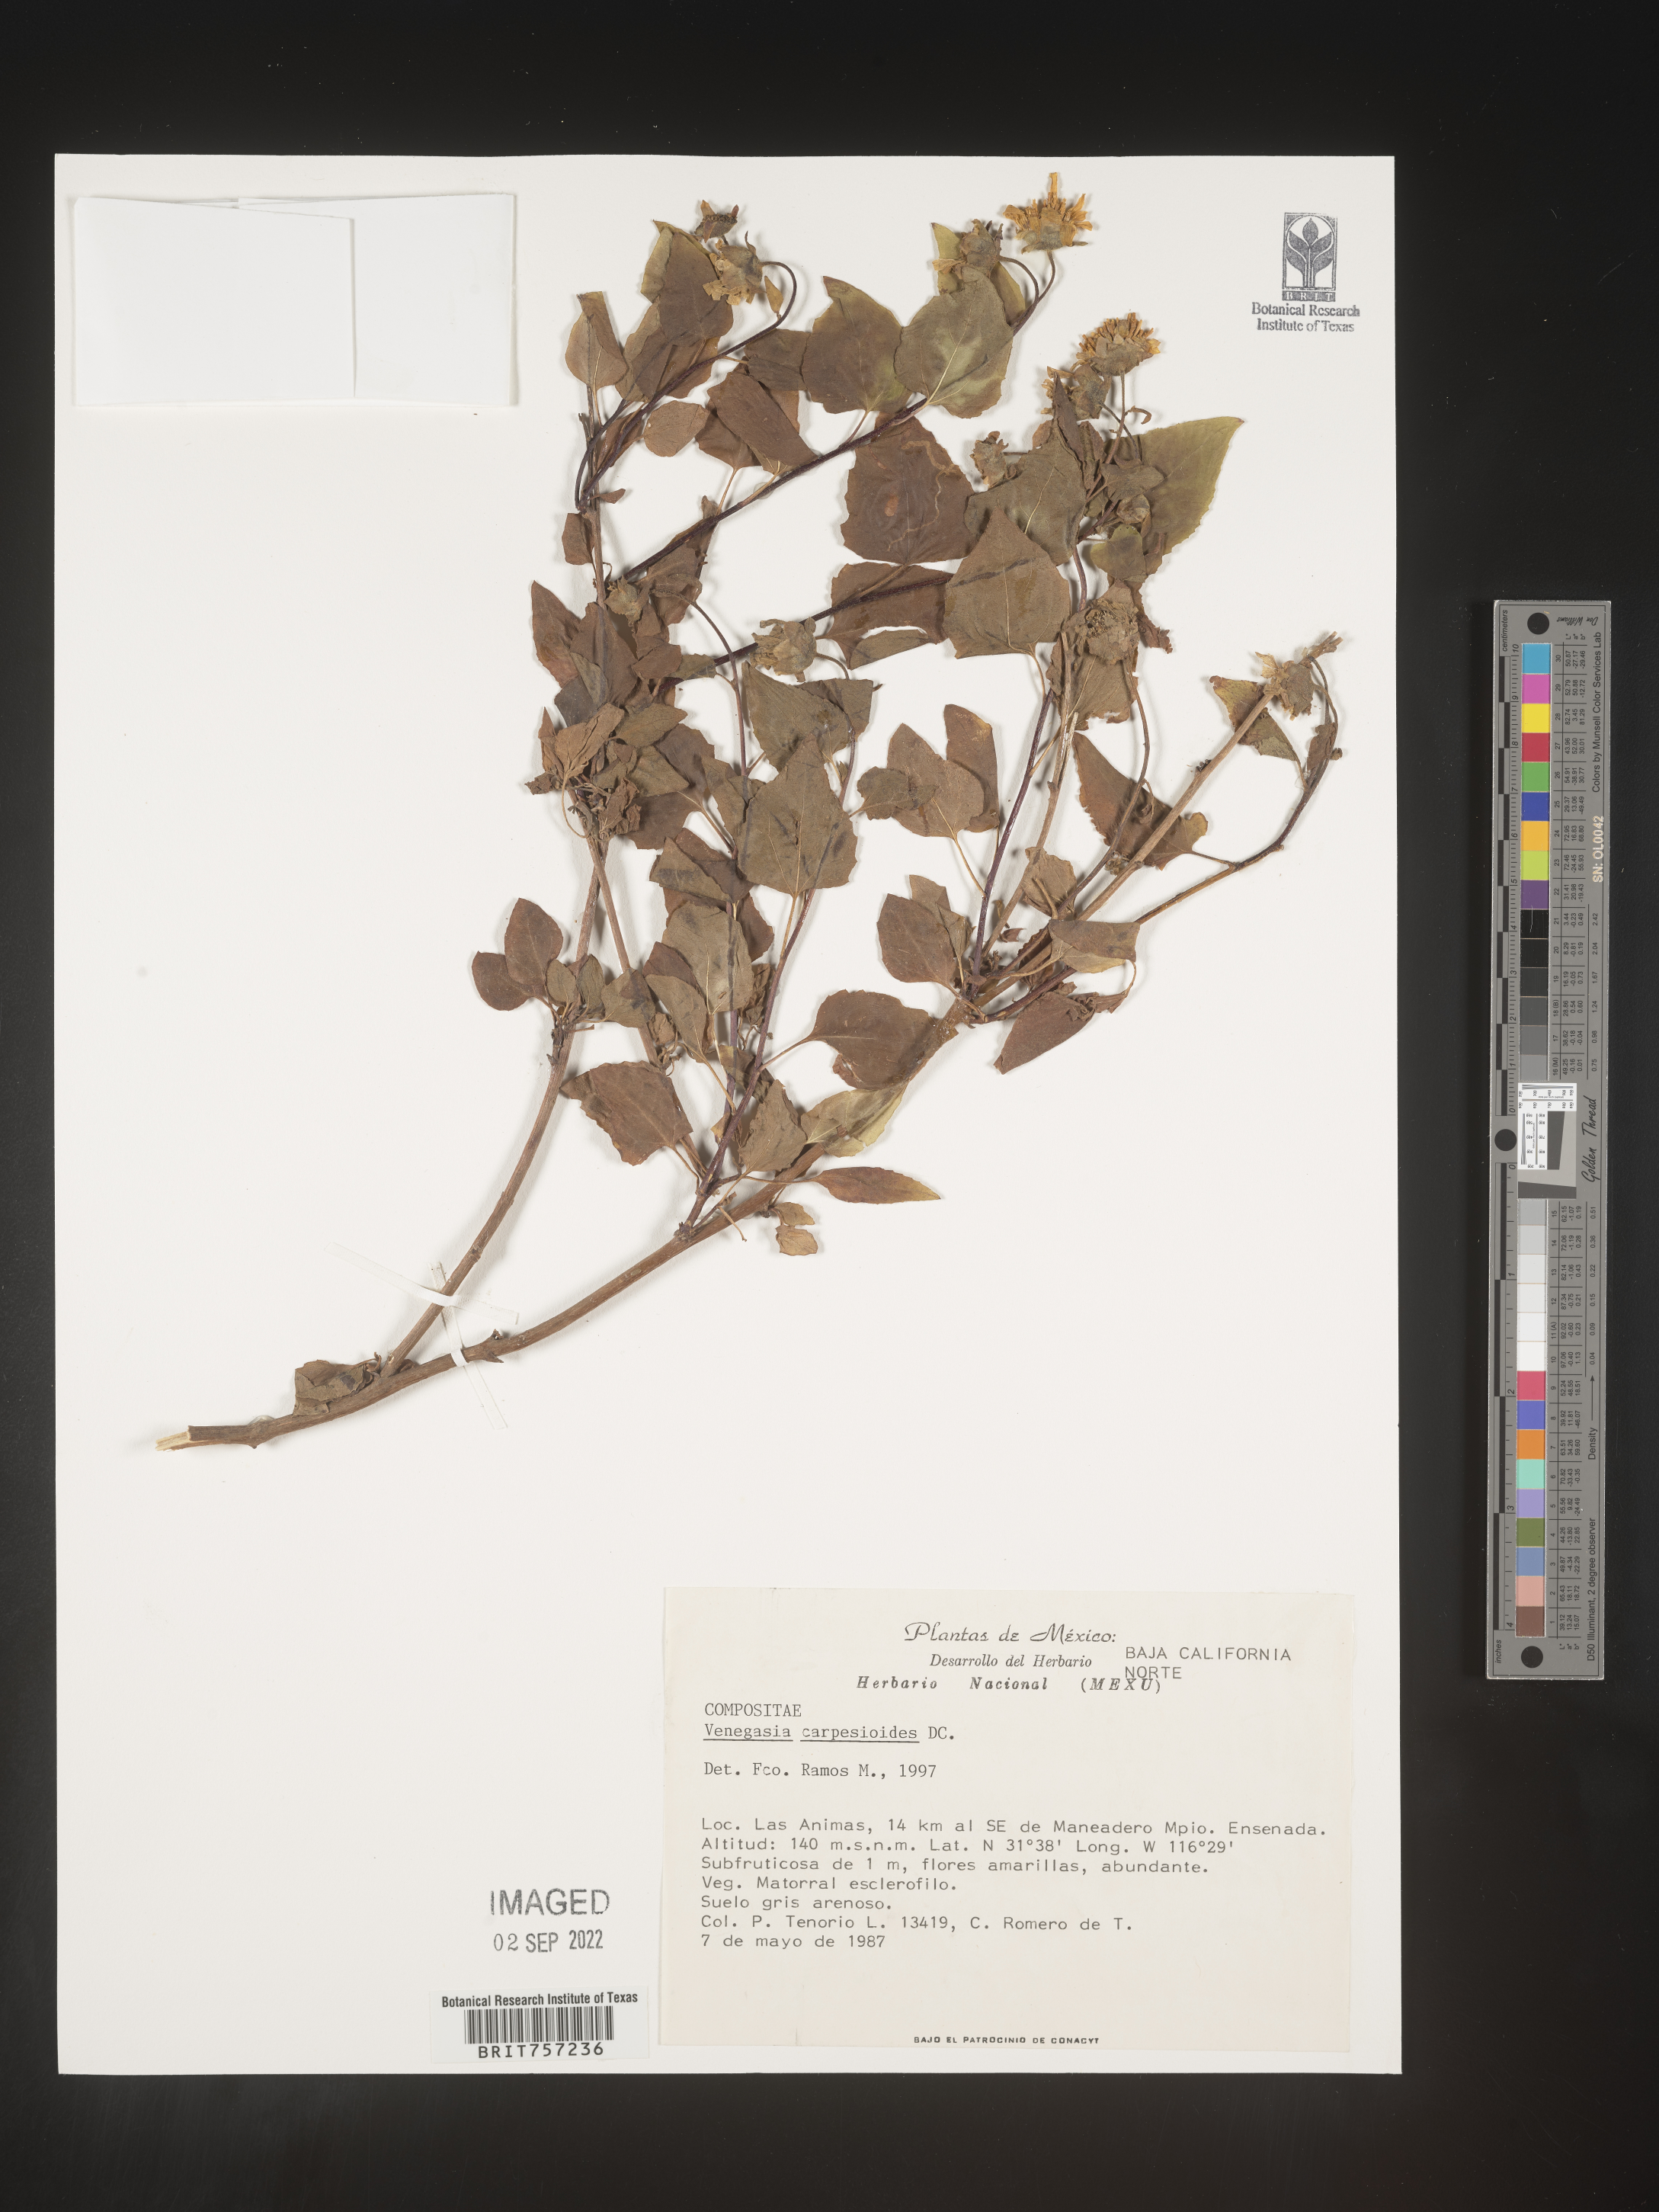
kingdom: Plantae
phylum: Tracheophyta
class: Magnoliopsida
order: Asterales
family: Asteraceae
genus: Venegasia
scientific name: Venegasia carpesioides
